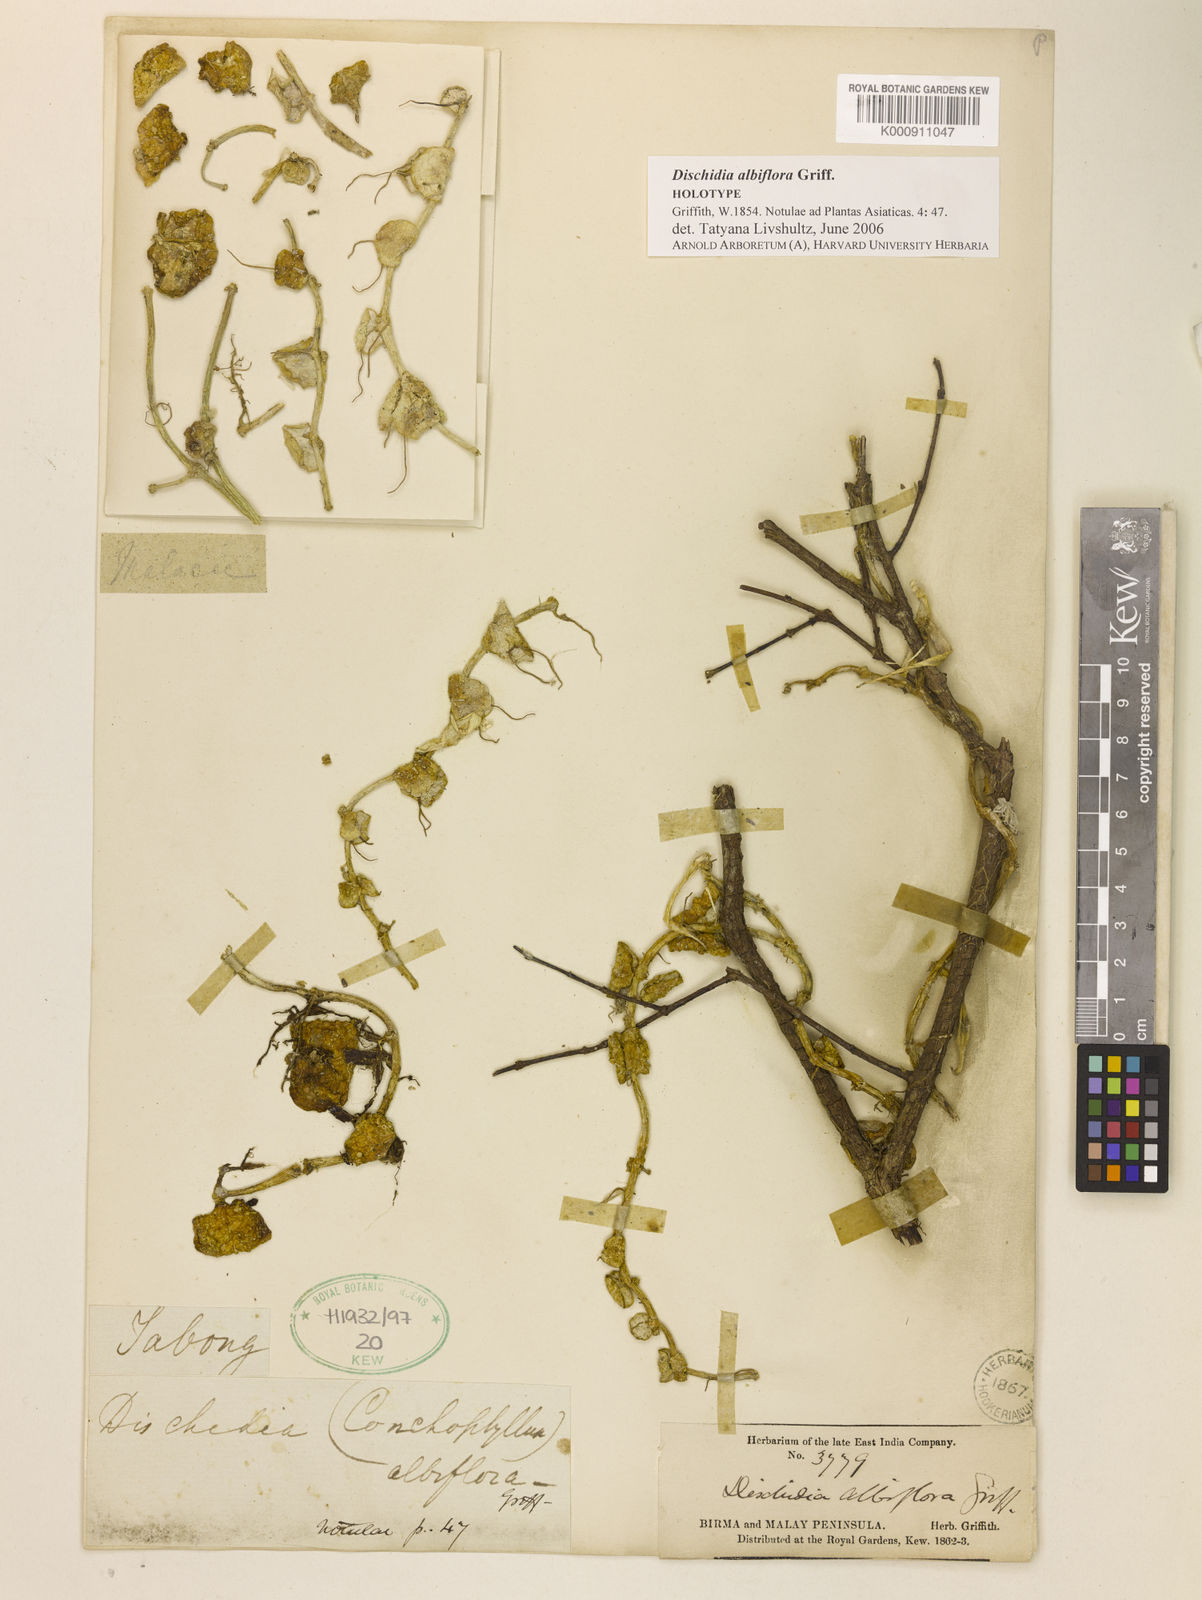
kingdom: Plantae
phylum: Tracheophyta
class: Magnoliopsida
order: Gentianales
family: Apocynaceae
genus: Dischidia
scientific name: Dischidia albiflora
